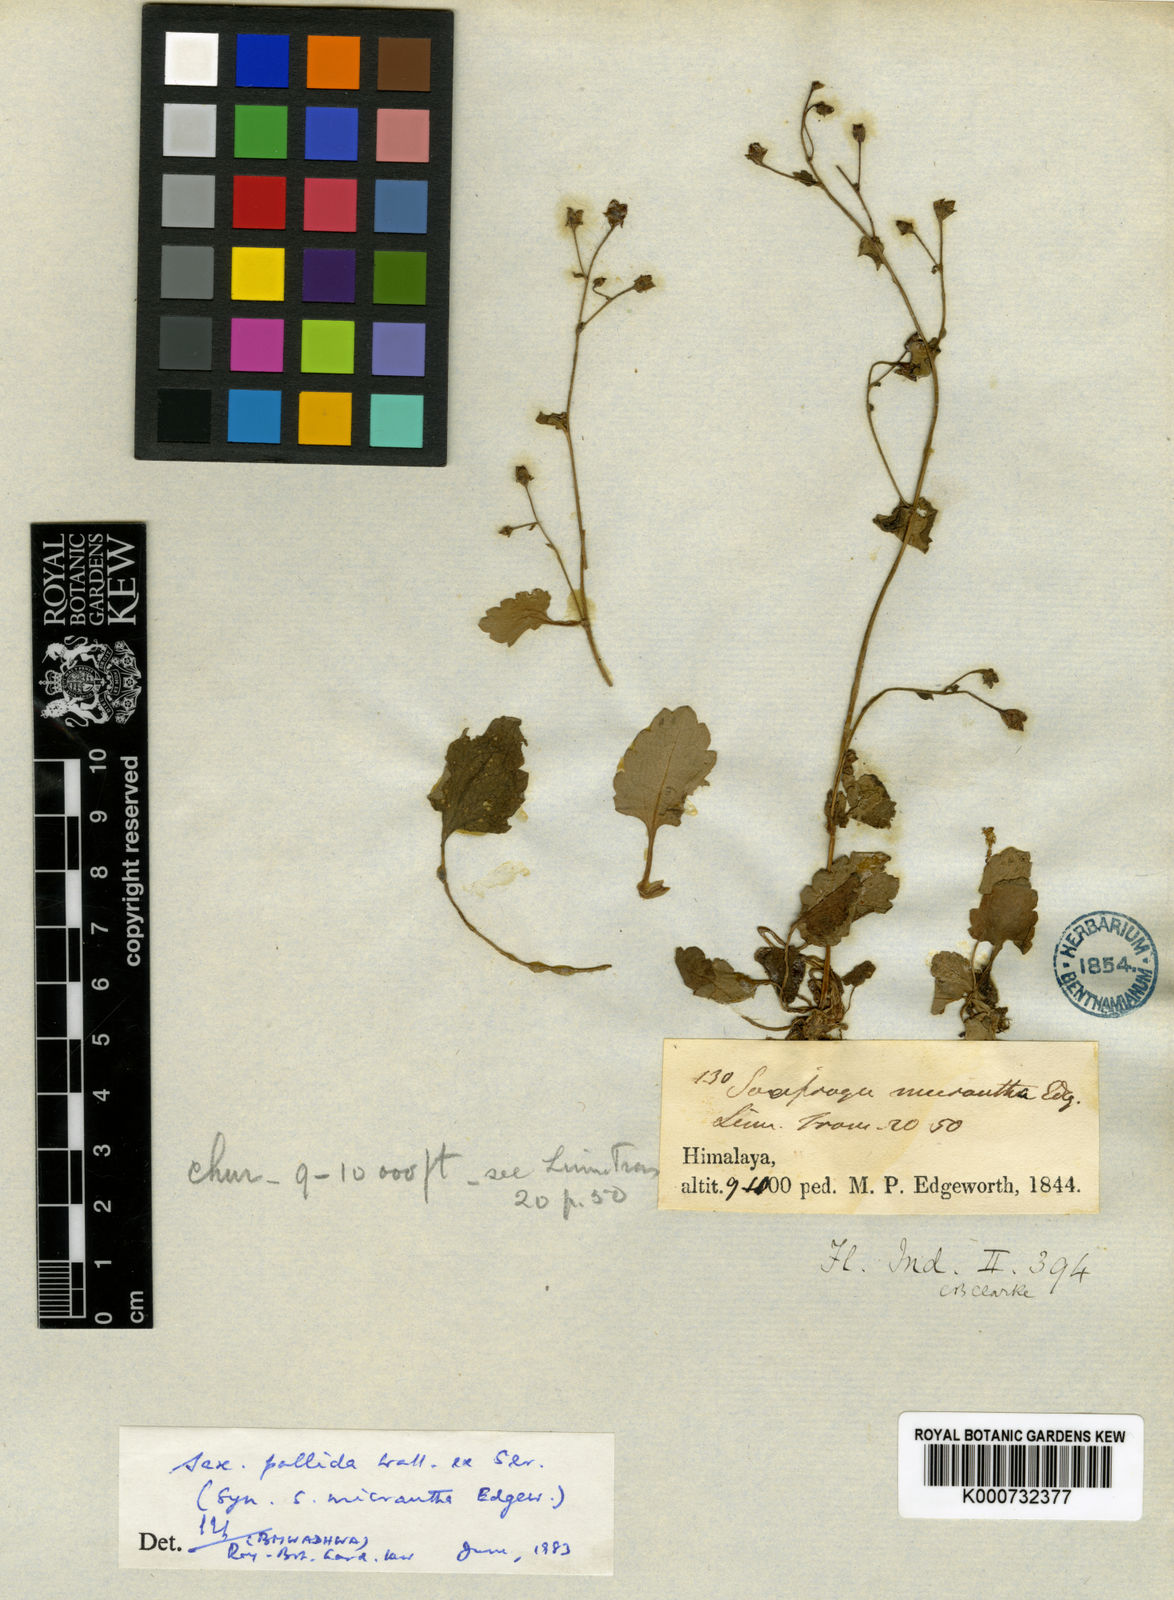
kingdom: Plantae
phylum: Tracheophyta
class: Magnoliopsida
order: Saxifragales
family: Saxifragaceae
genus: Micranthes
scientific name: Micranthes pallida
